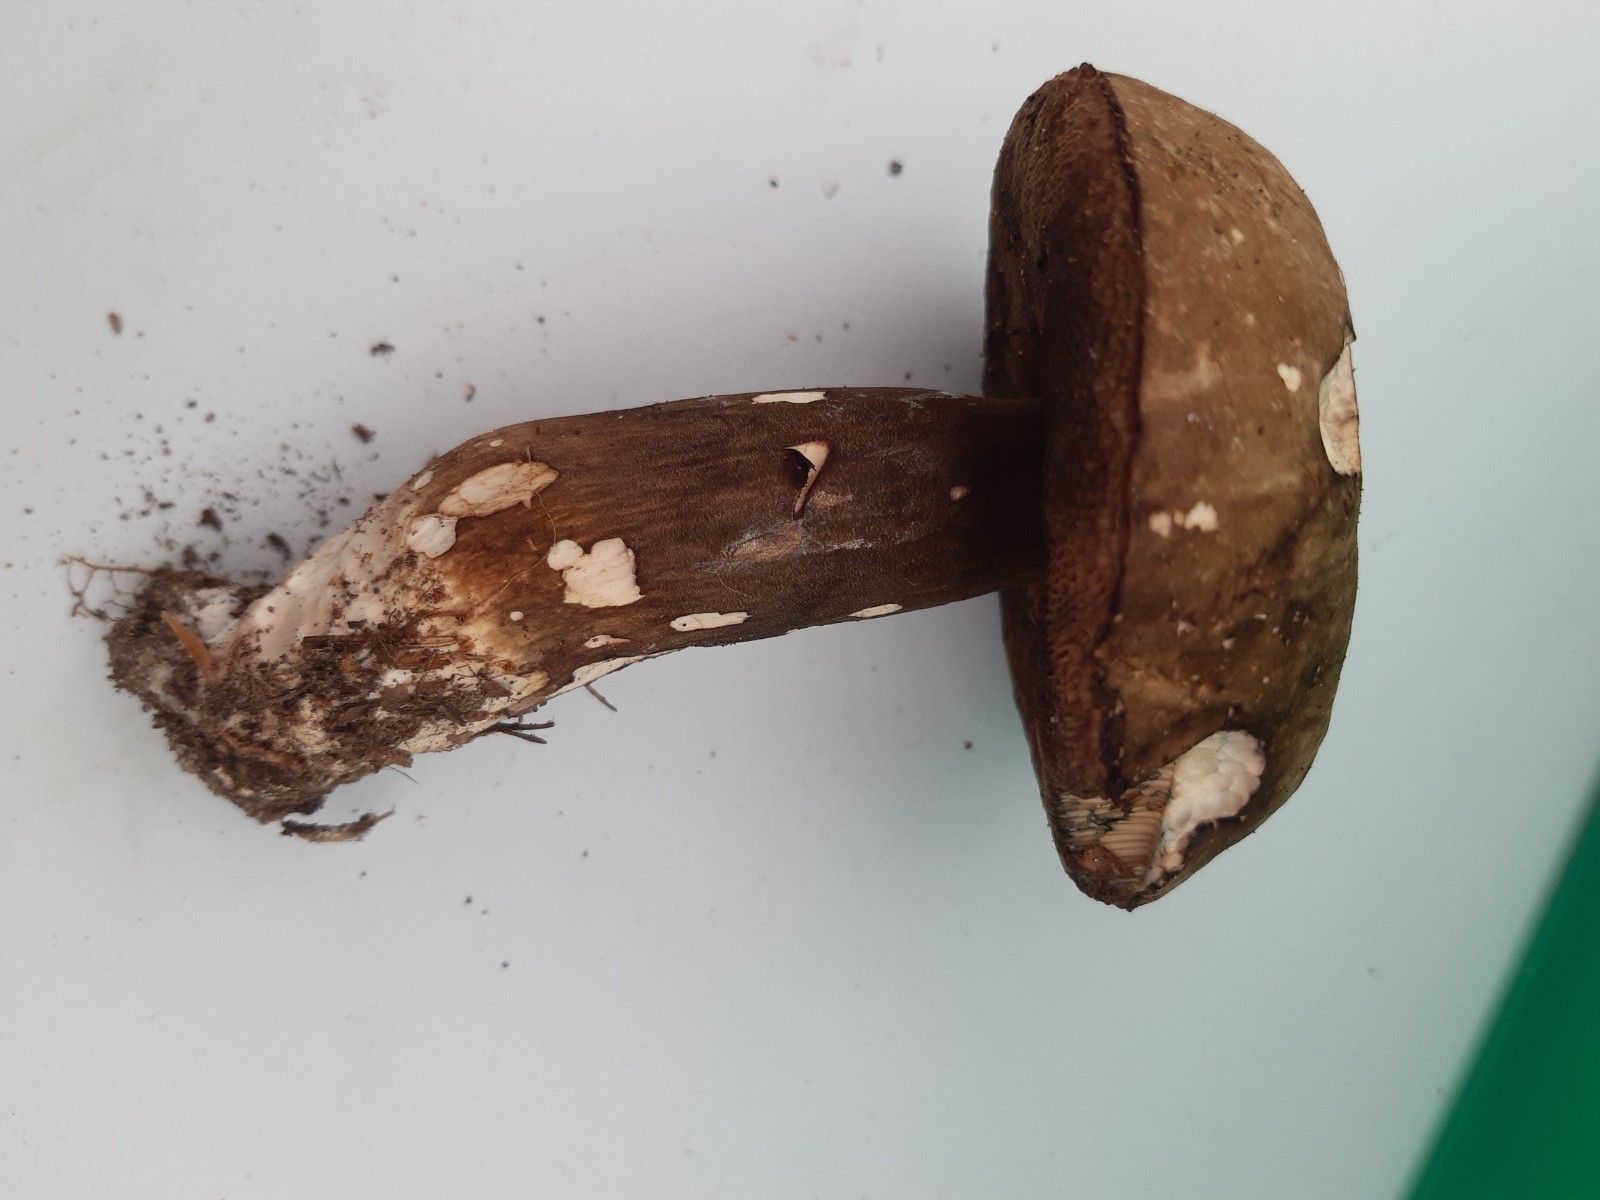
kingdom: Fungi
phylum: Basidiomycota
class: Agaricomycetes
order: Boletales
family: Boletaceae
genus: Porphyrellus
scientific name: Porphyrellus porphyrosporus
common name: sodrørhat
